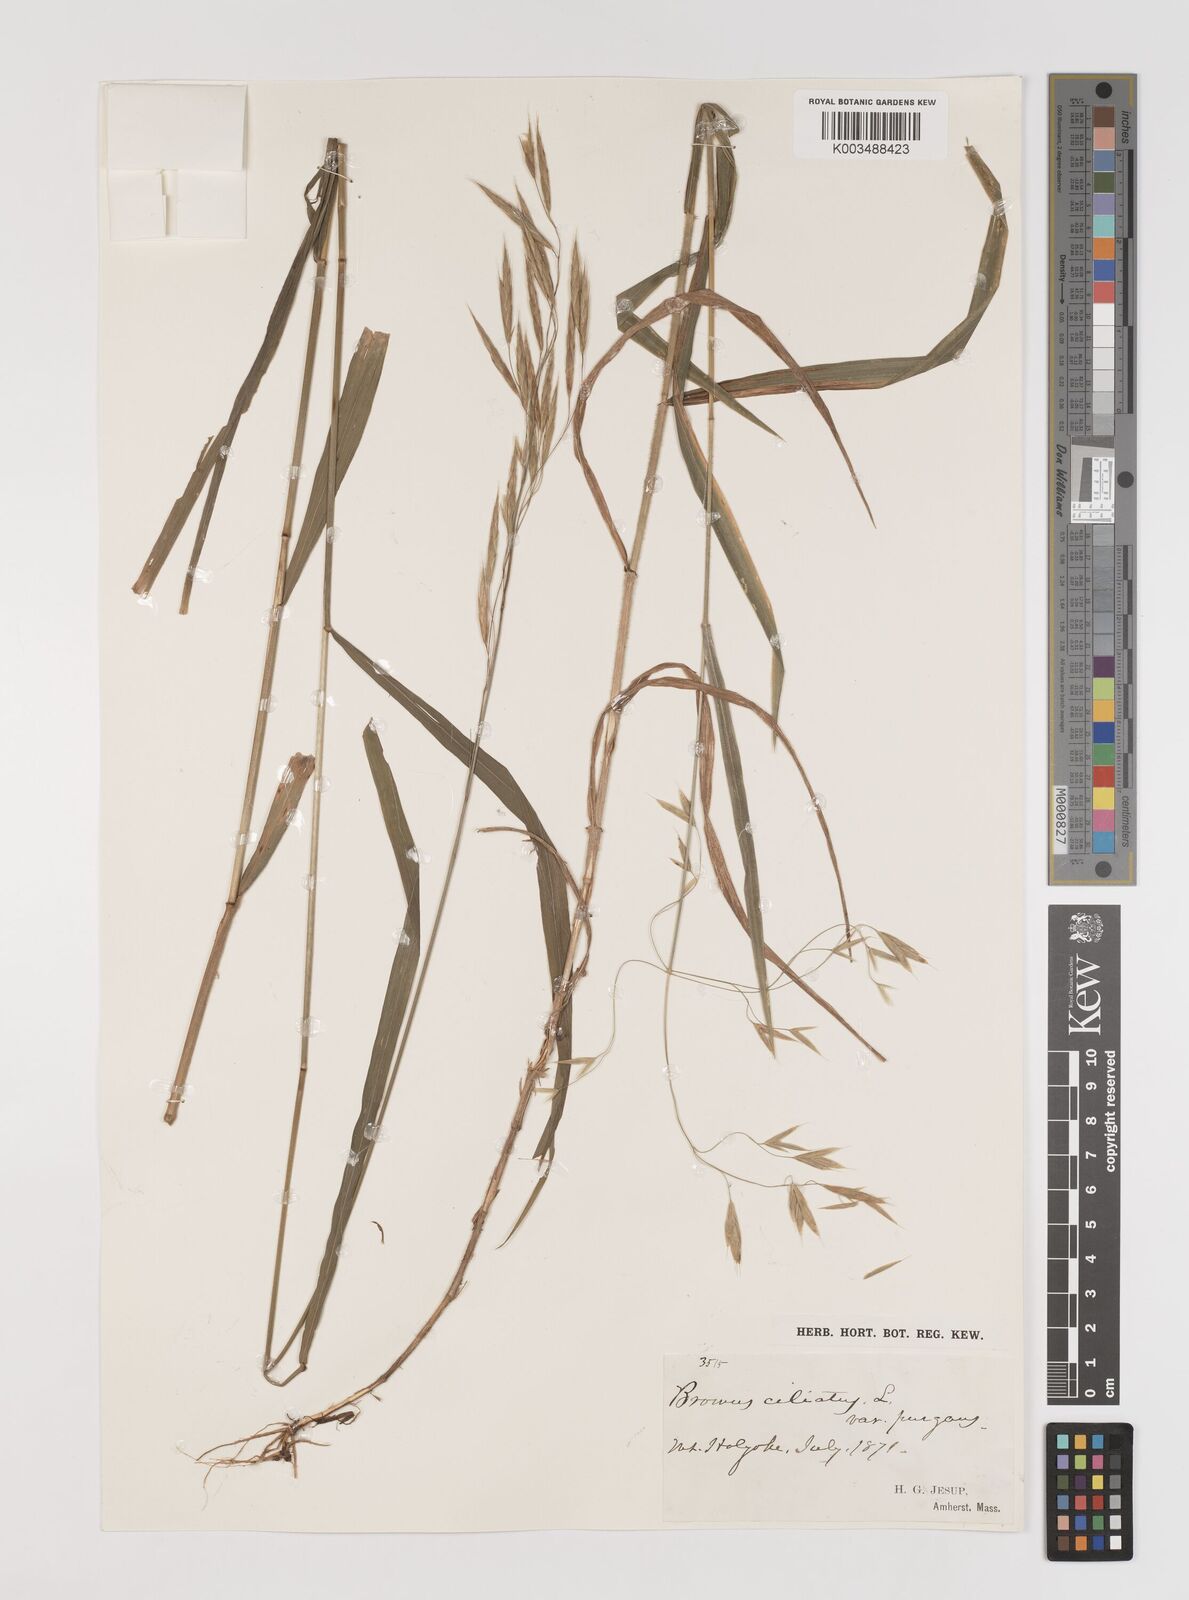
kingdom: Plantae
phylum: Tracheophyta
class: Liliopsida
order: Poales
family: Poaceae
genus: Bromus
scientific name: Bromus ciliatus
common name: Fringe brome
